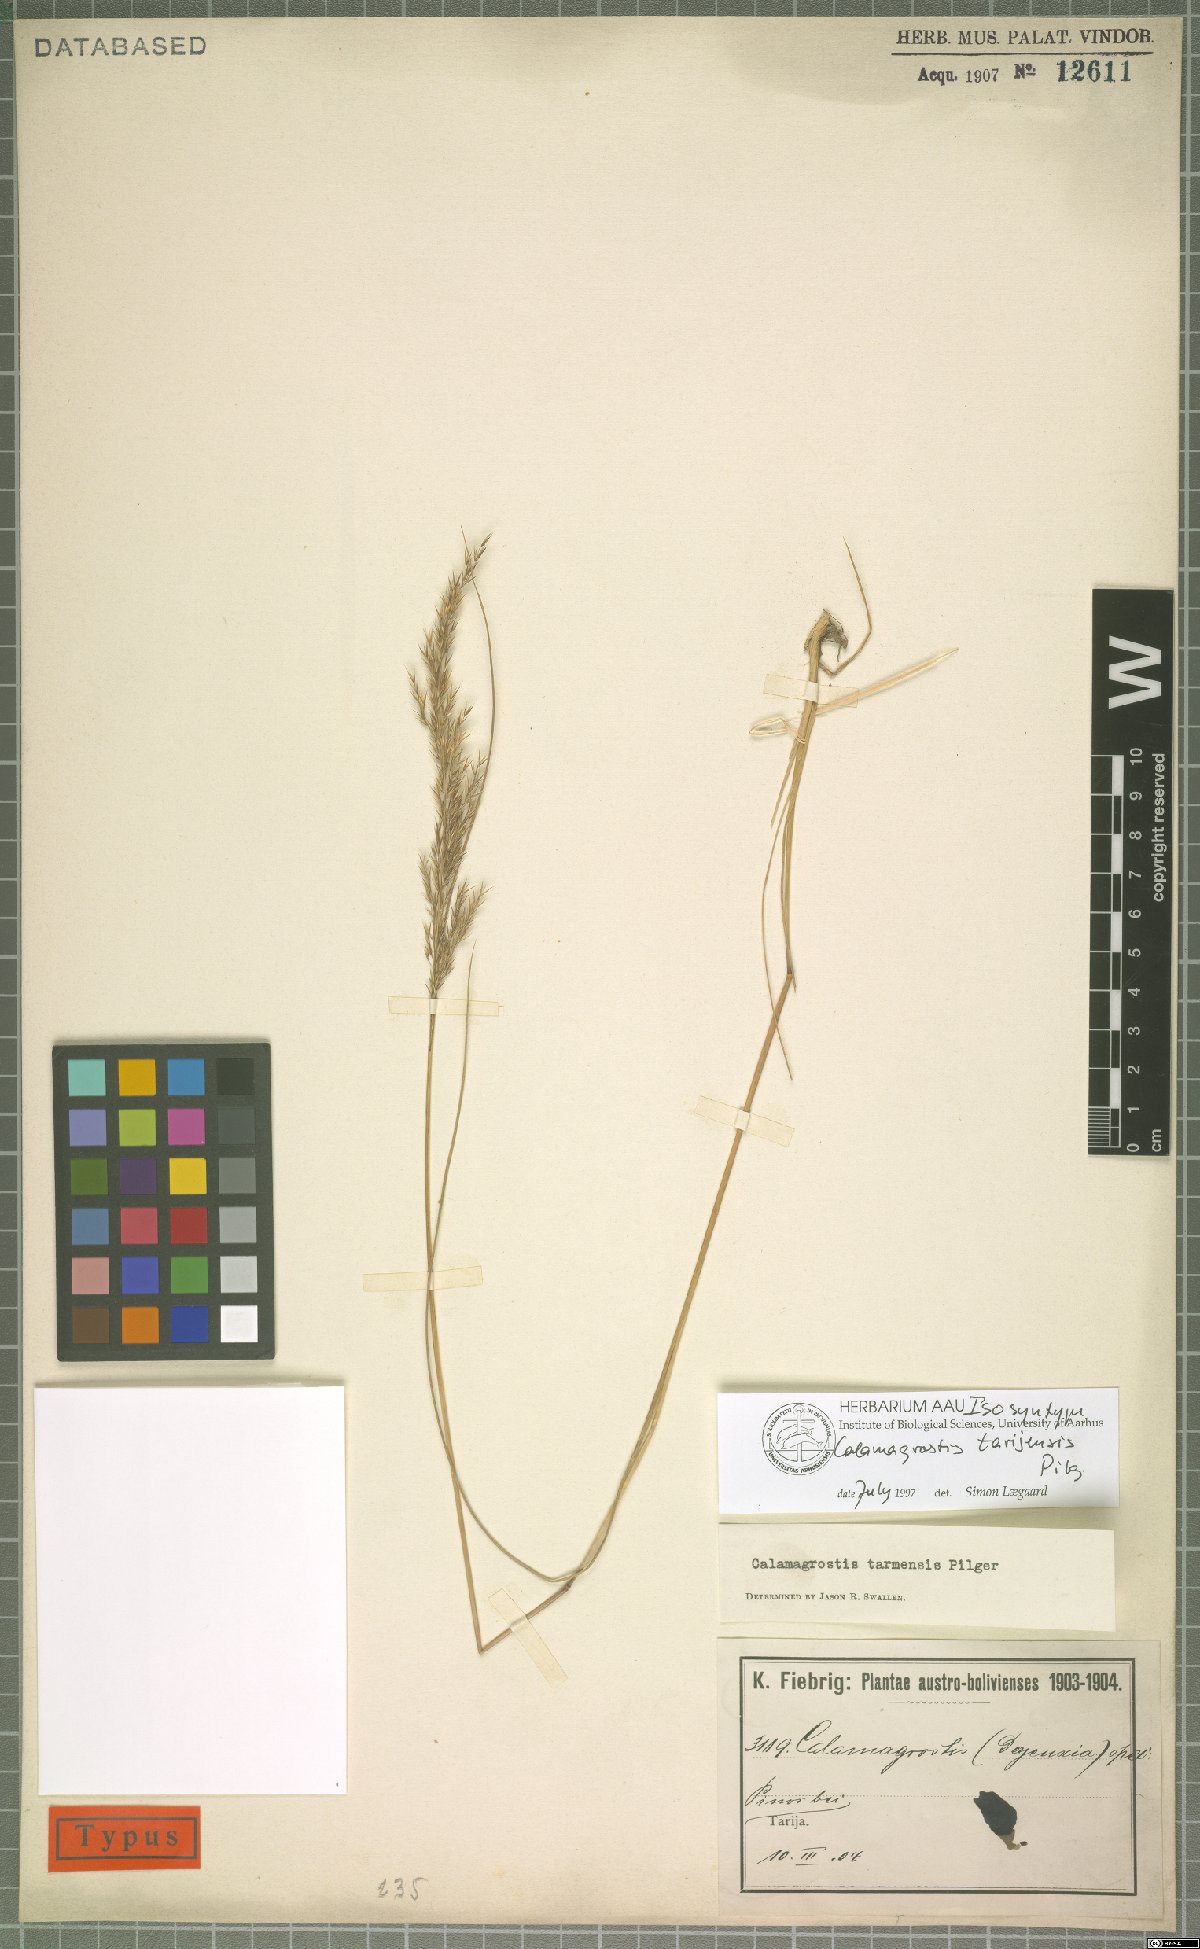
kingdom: Plantae
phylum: Tracheophyta
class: Liliopsida
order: Poales
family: Poaceae
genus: Cinnagrostis
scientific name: Cinnagrostis tarmensis
